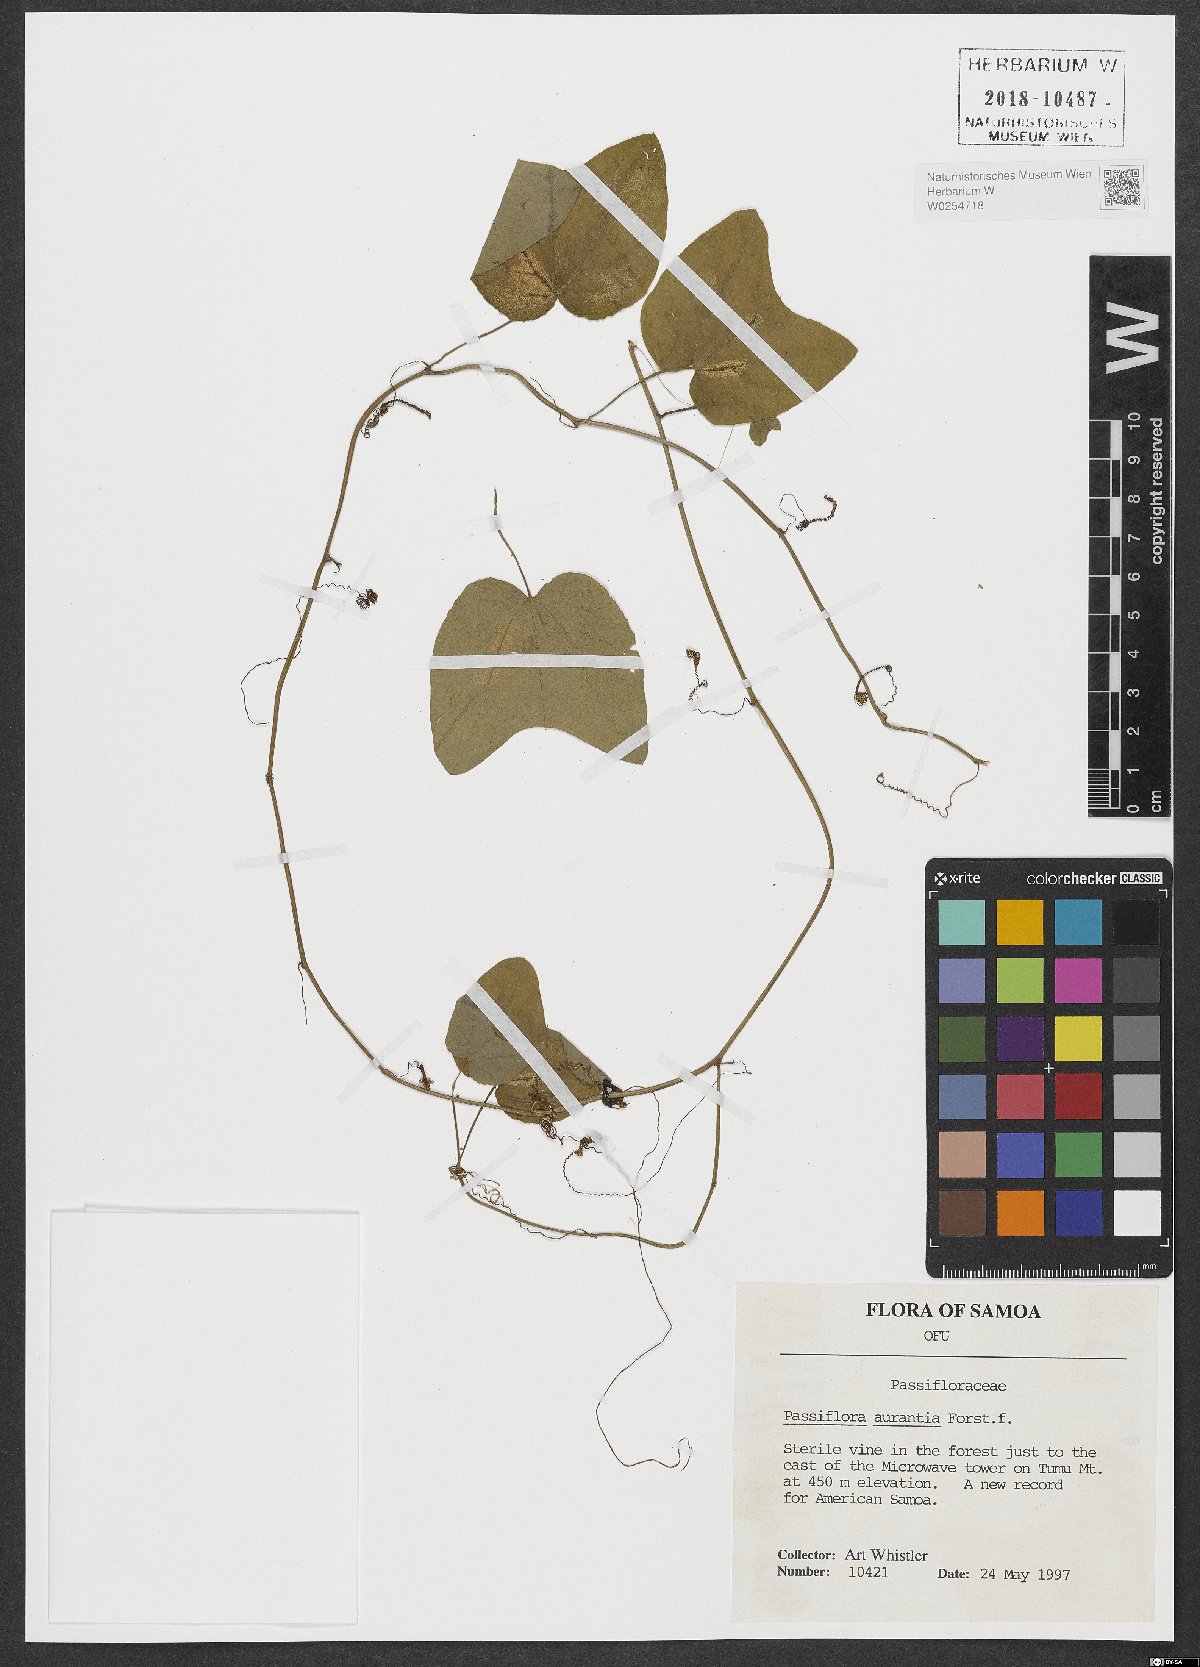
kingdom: Plantae
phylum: Tracheophyta
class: Magnoliopsida
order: Malpighiales
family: Passifloraceae
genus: Passiflora
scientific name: Passiflora aurantia
